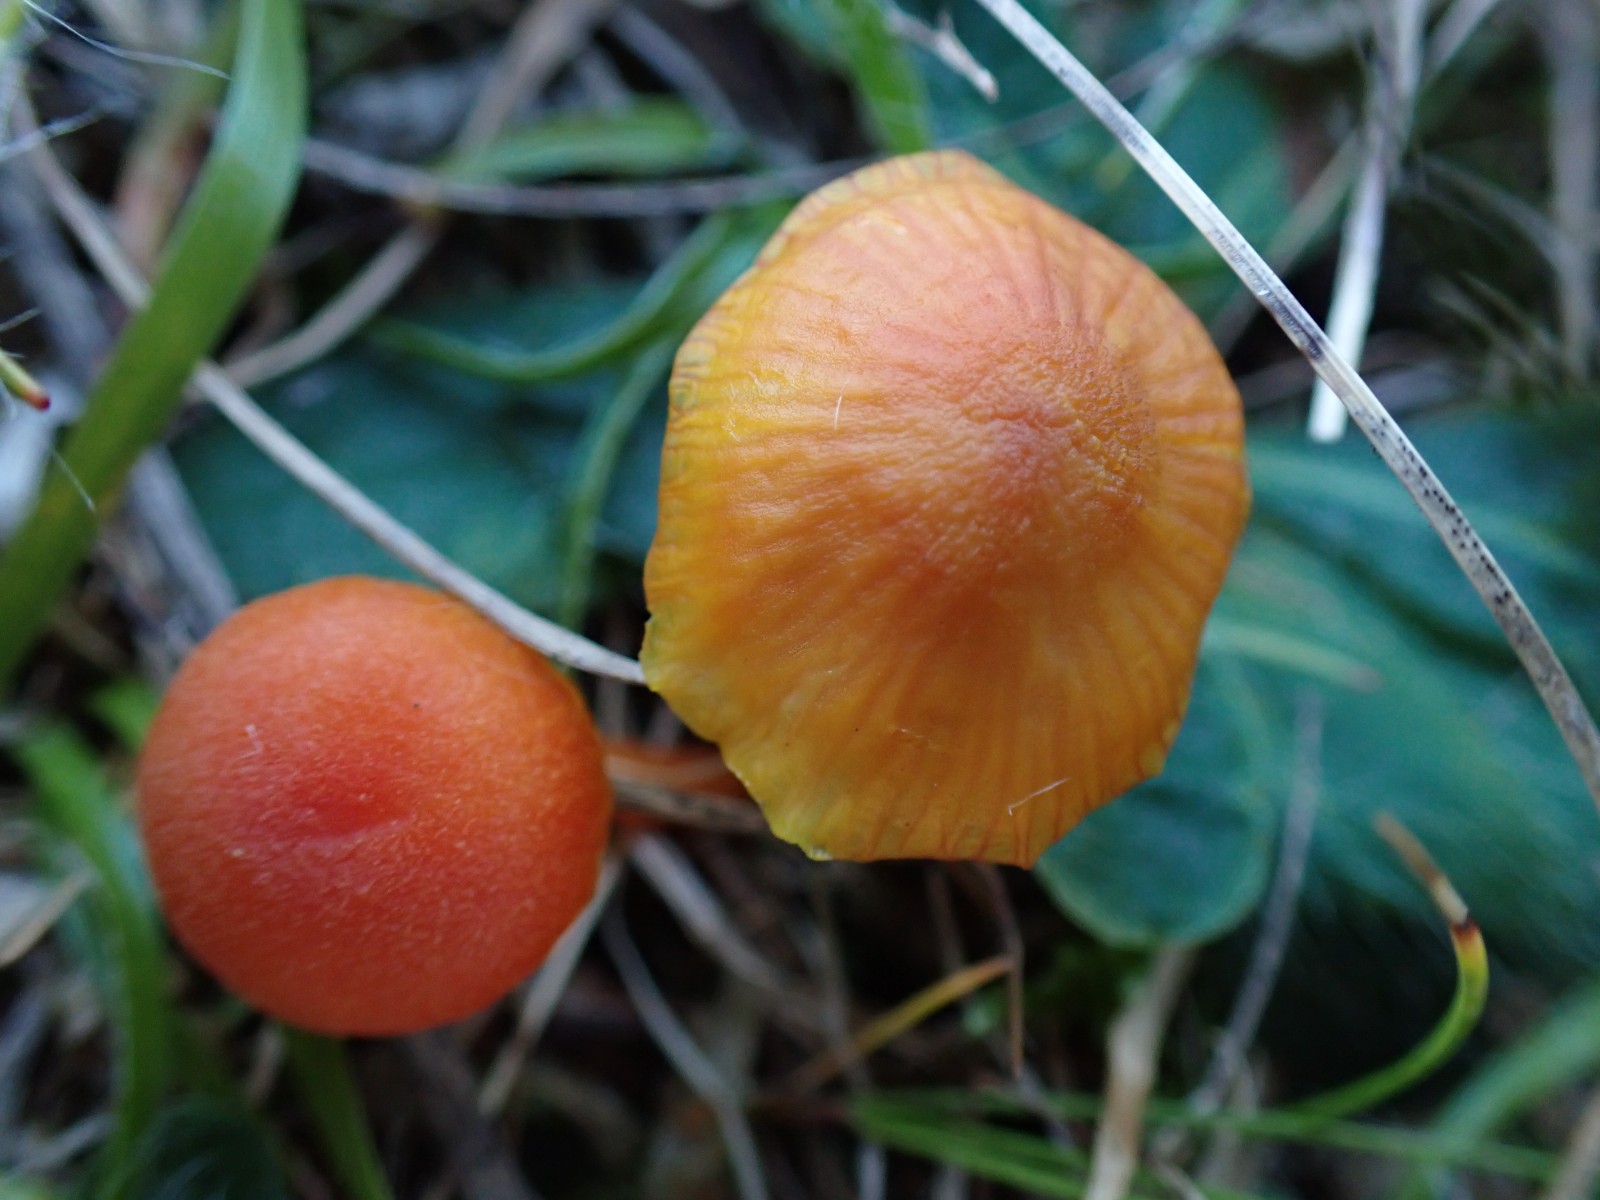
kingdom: Fungi
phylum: Basidiomycota
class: Agaricomycetes
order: Agaricales
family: Hygrophoraceae
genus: Hygrocybe
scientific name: Hygrocybe miniata
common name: mønje-vokshat
